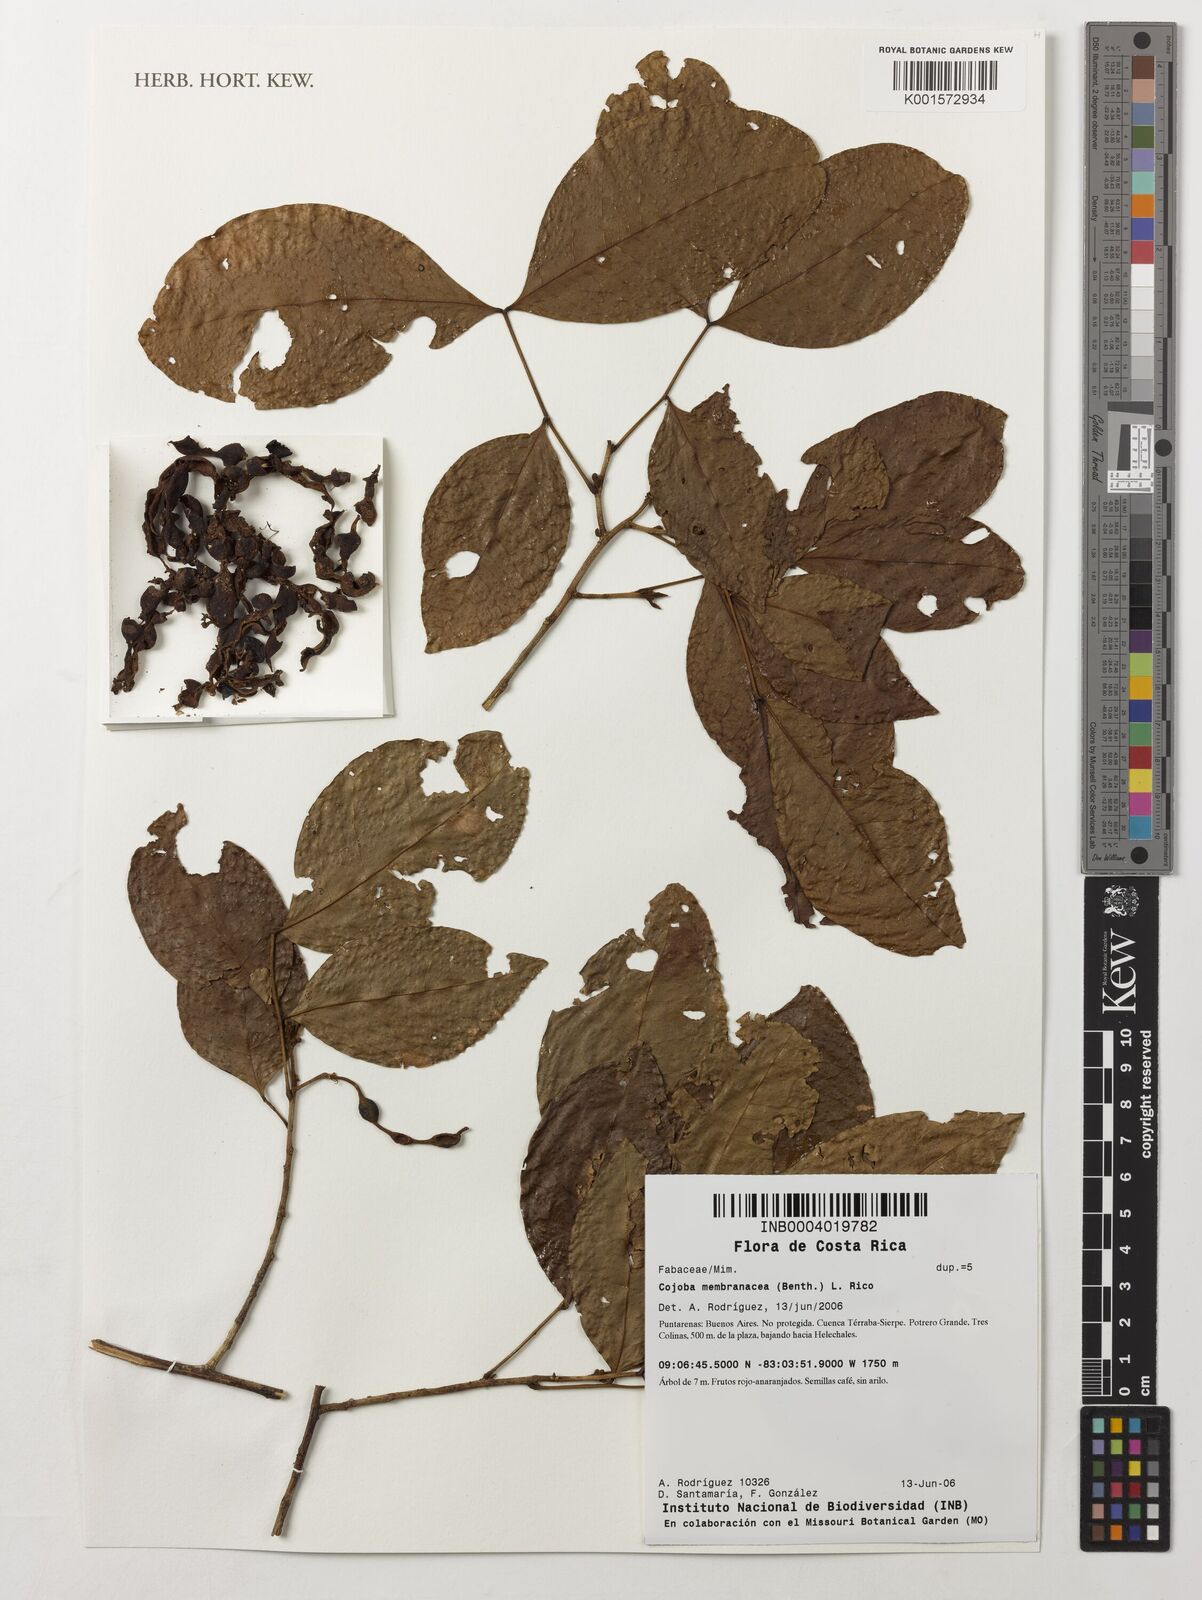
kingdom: Plantae
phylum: Tracheophyta
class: Magnoliopsida
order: Fabales
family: Fabaceae
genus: Cojoba
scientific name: Cojoba rufescens
